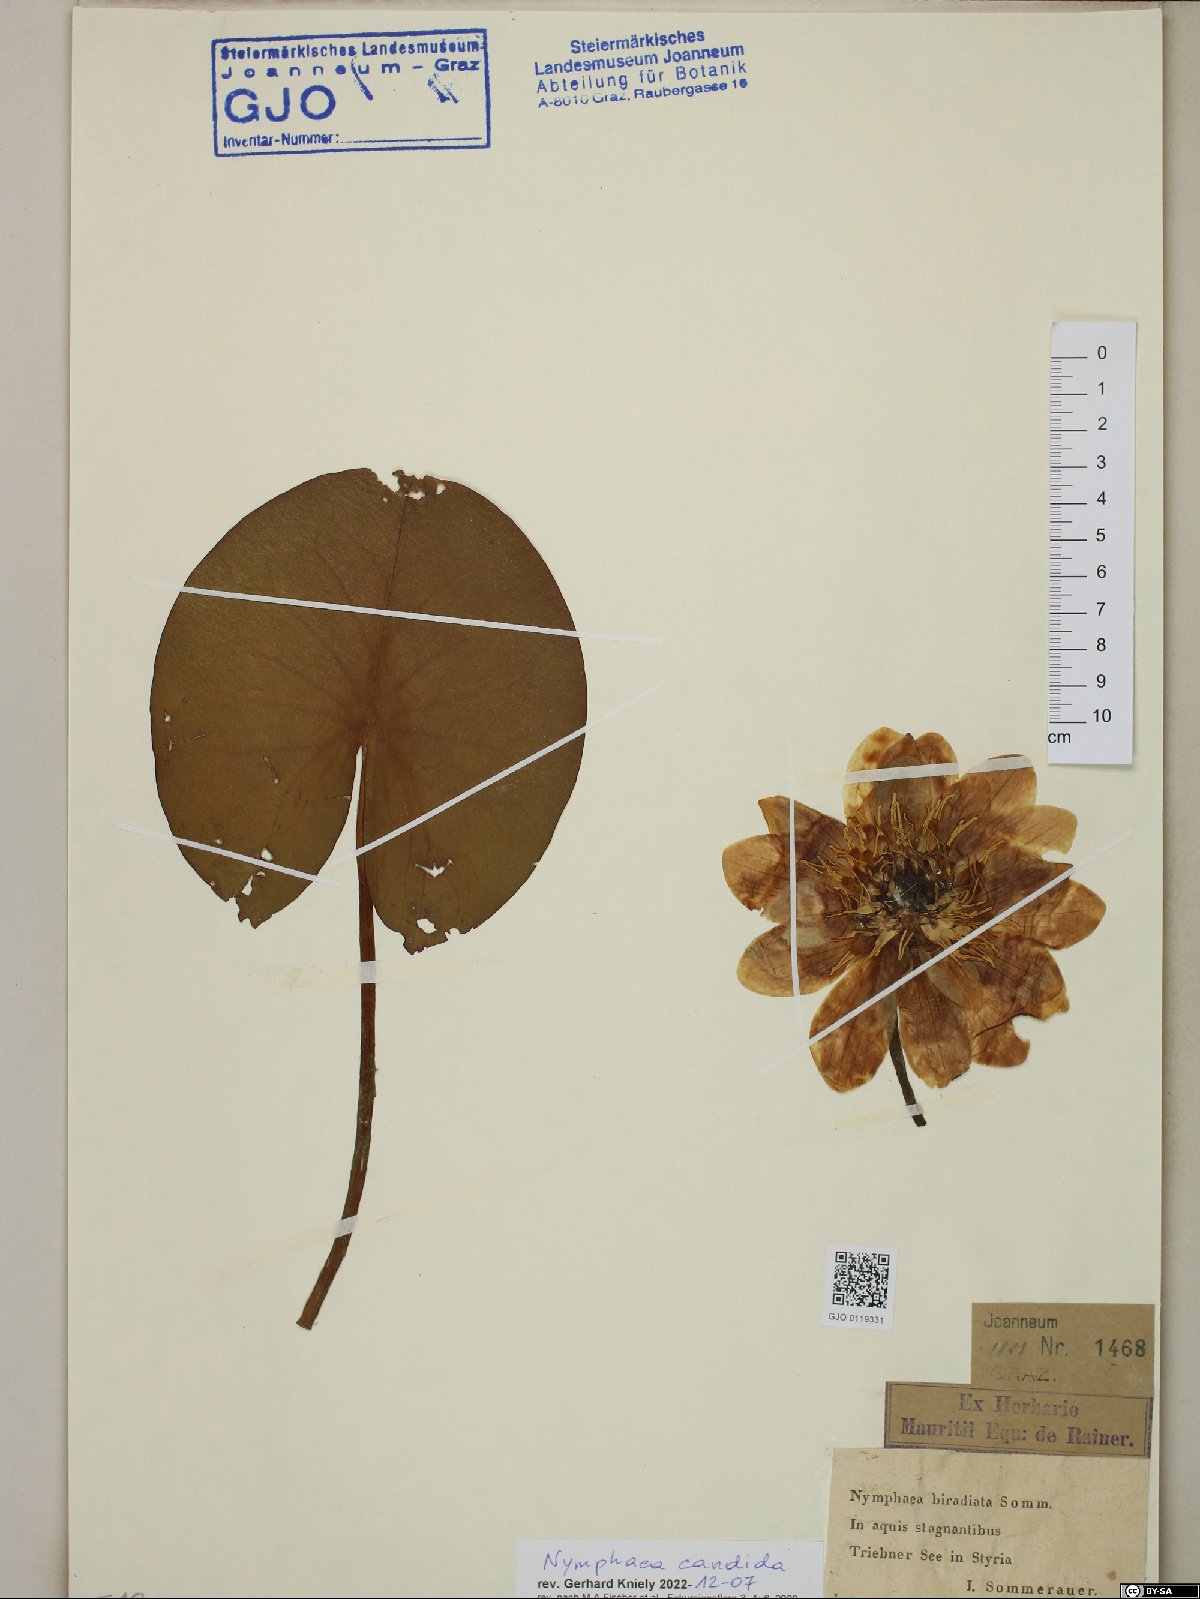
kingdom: Plantae
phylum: Tracheophyta
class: Magnoliopsida
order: Nymphaeales
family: Nymphaeaceae
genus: Nymphaea
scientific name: Nymphaea candida
